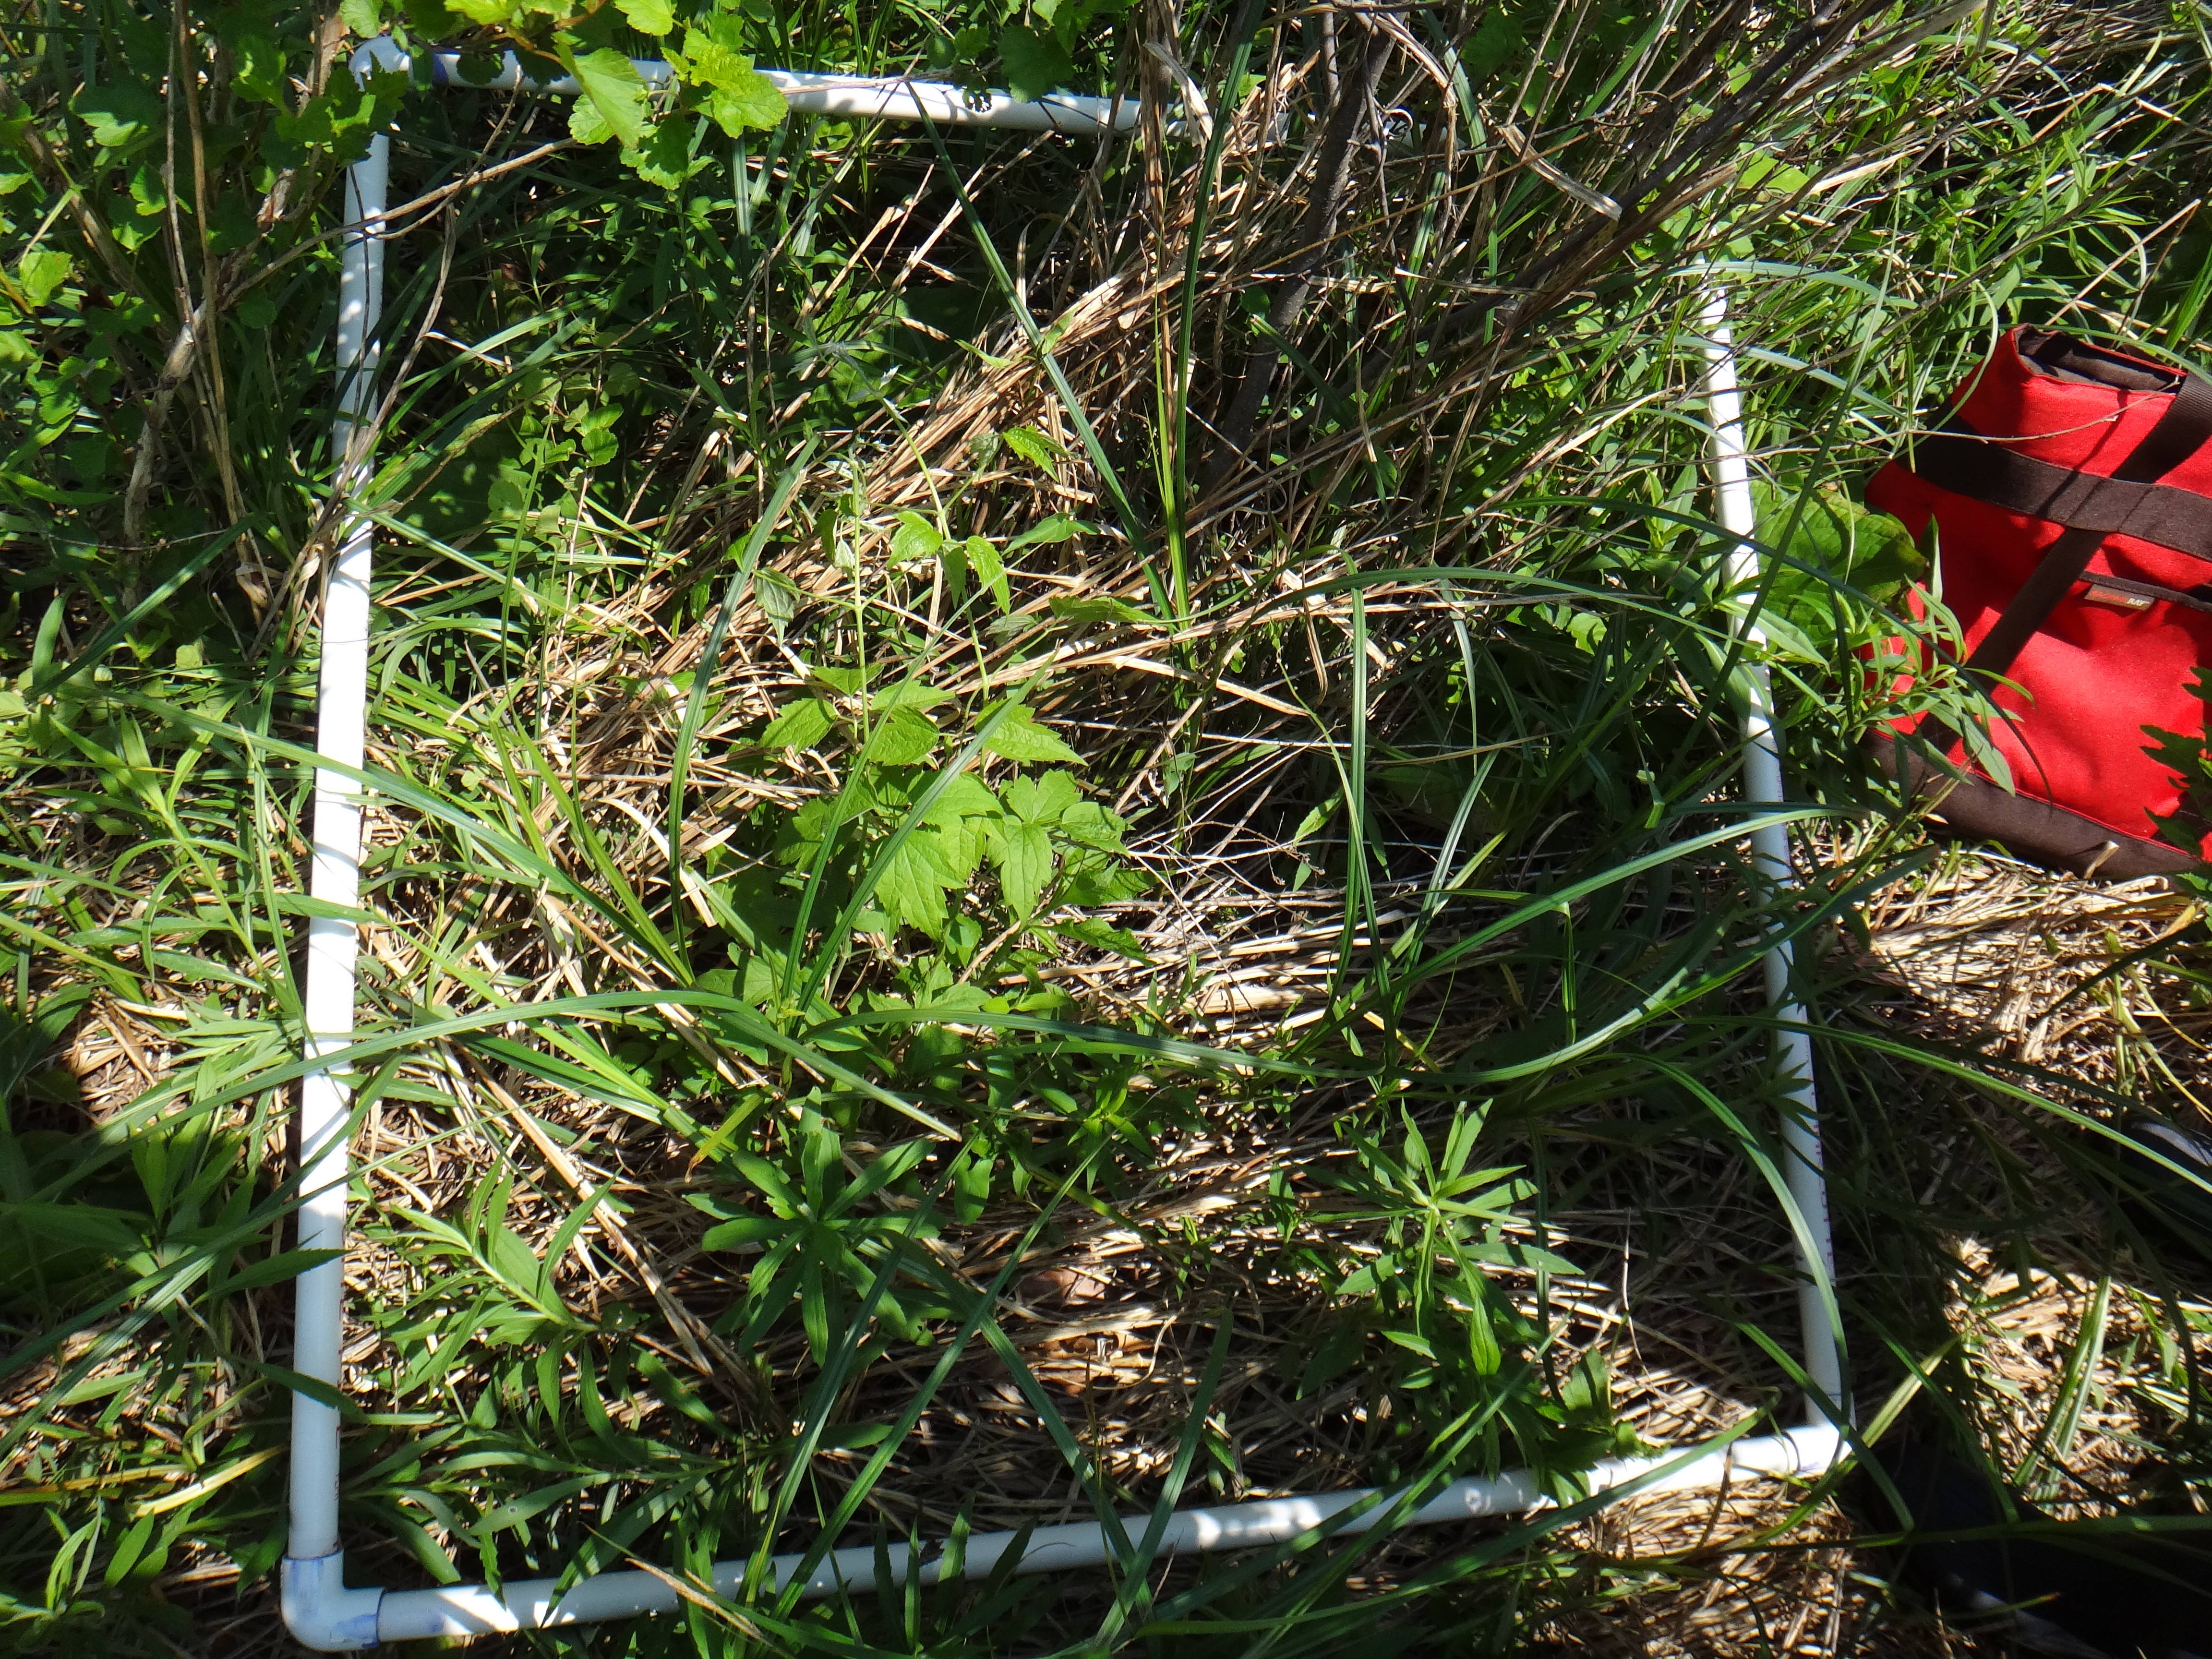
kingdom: Plantae
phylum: Tracheophyta
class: Magnoliopsida
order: Rosales
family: Rhamnaceae
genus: Frangula
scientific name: Frangula alnus
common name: Alder buckthorn
